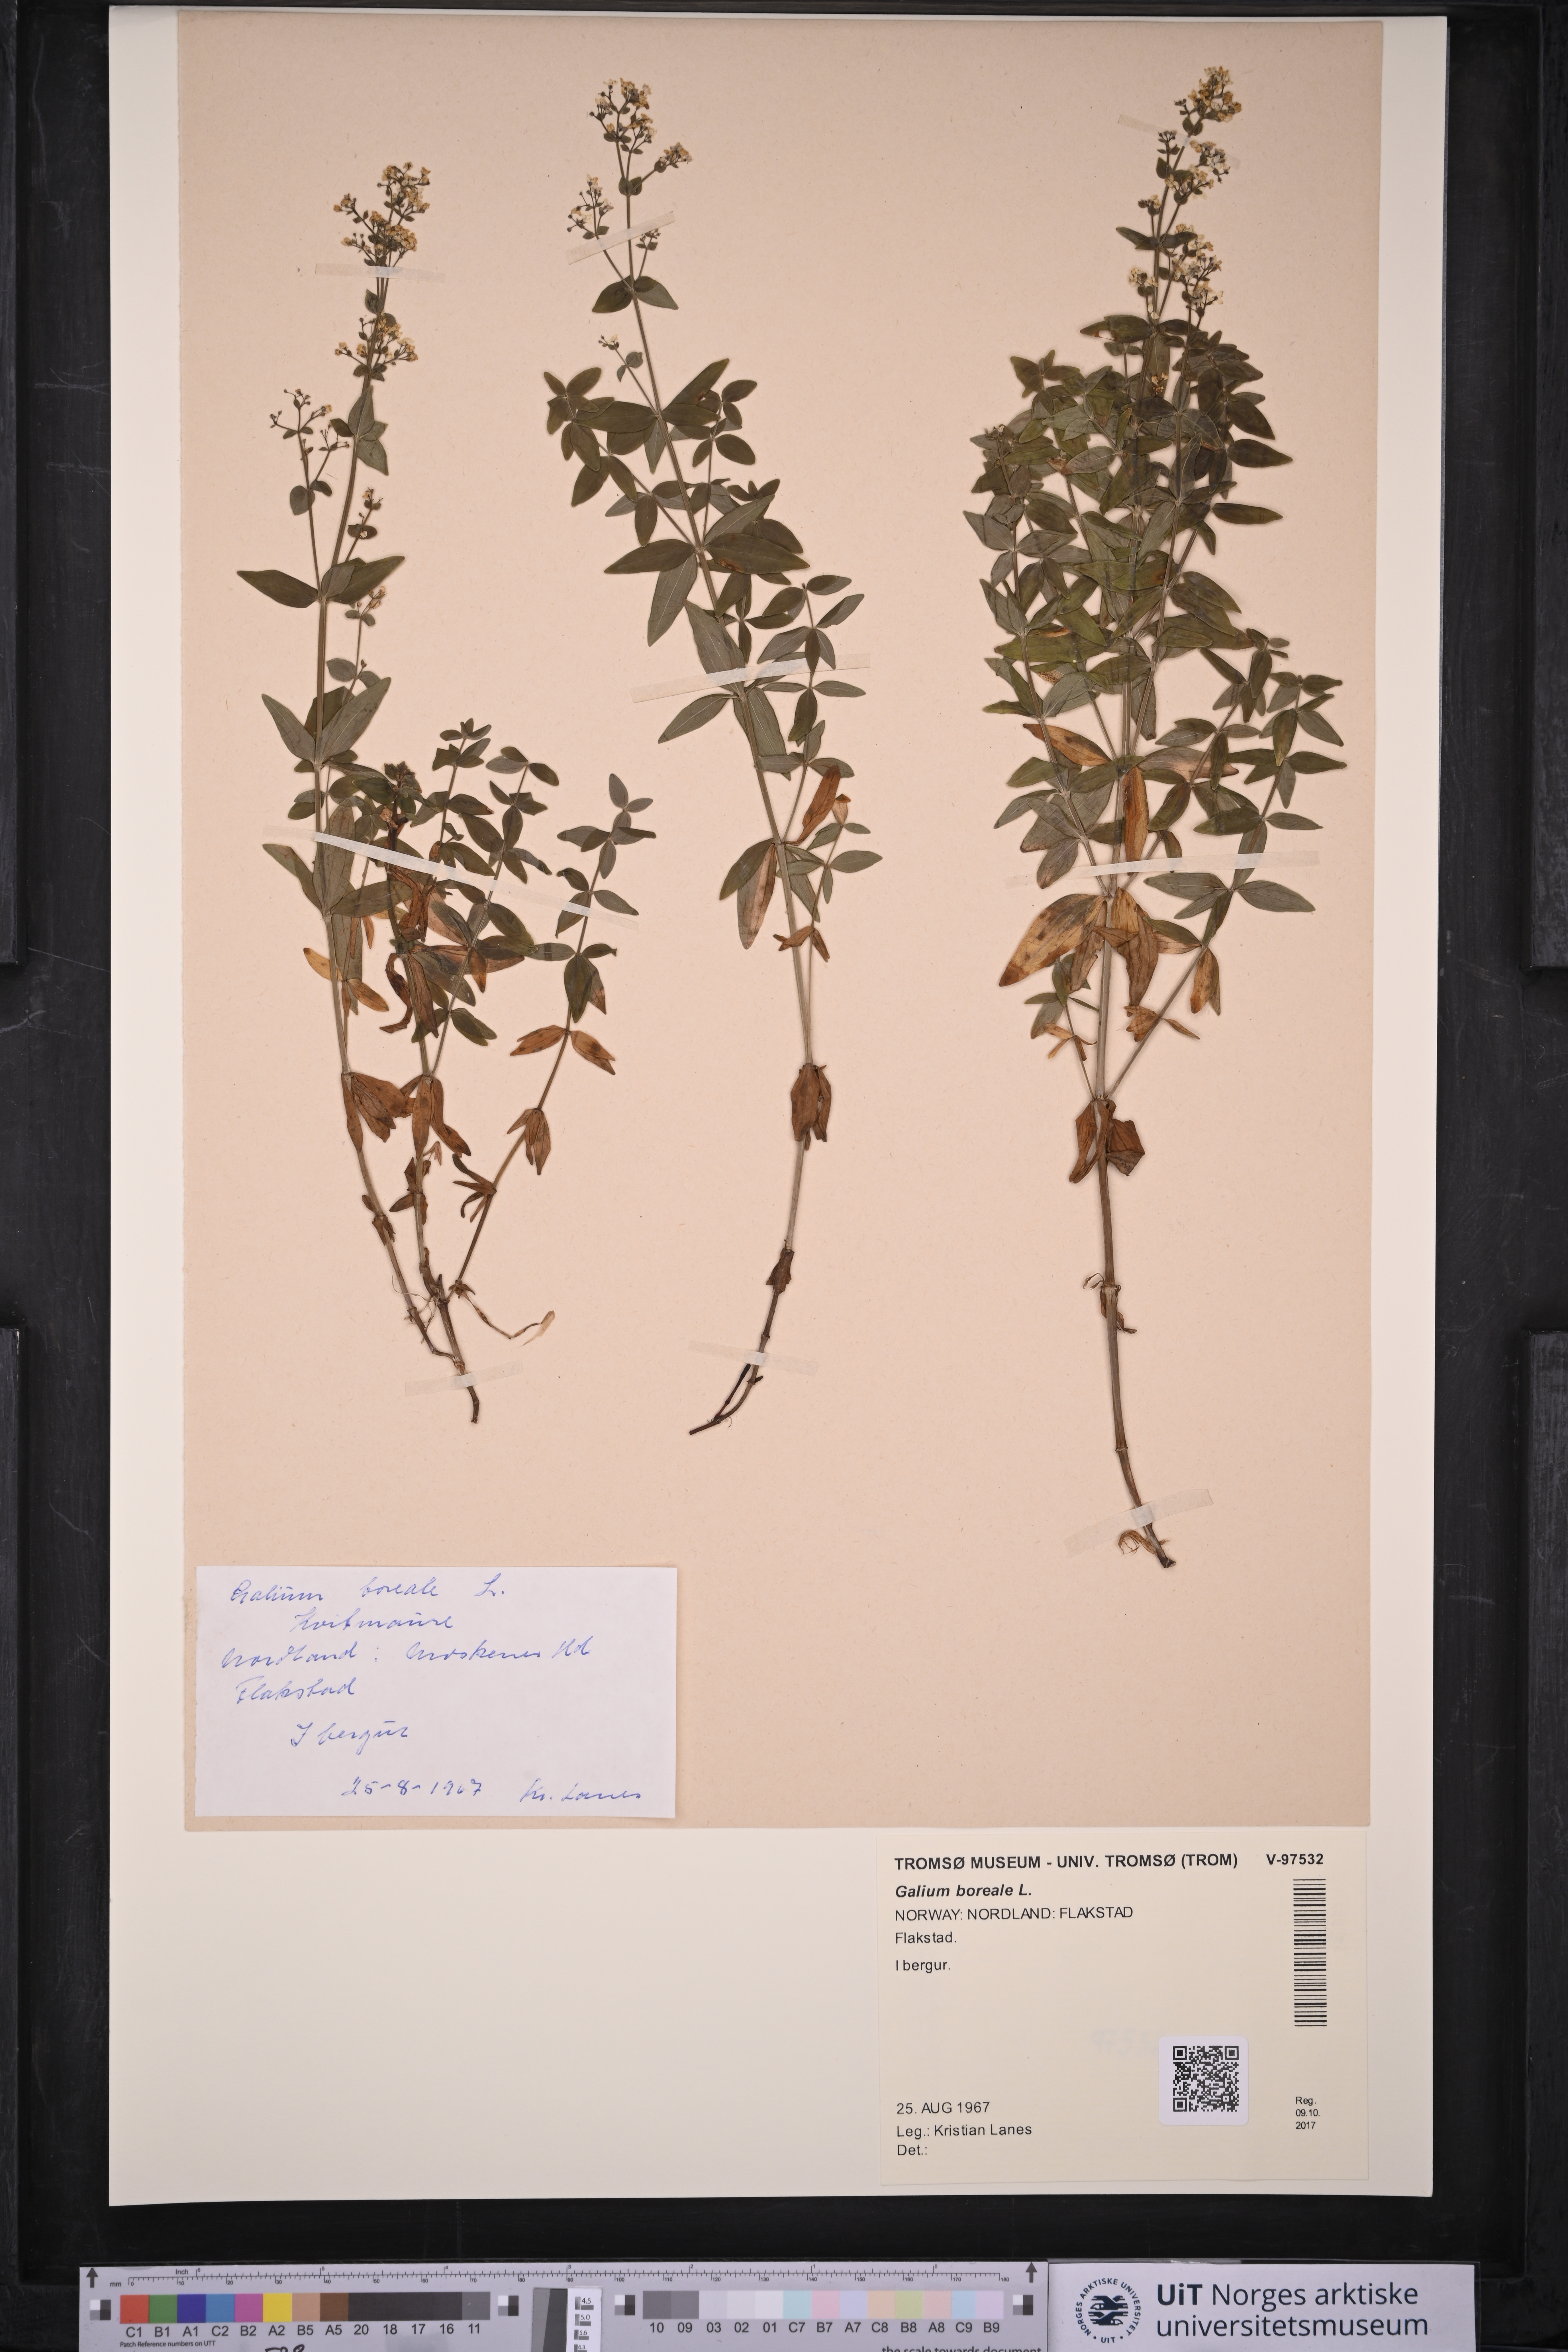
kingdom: Plantae
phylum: Tracheophyta
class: Magnoliopsida
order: Gentianales
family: Rubiaceae
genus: Galium
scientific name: Galium boreale
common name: Northern bedstraw
